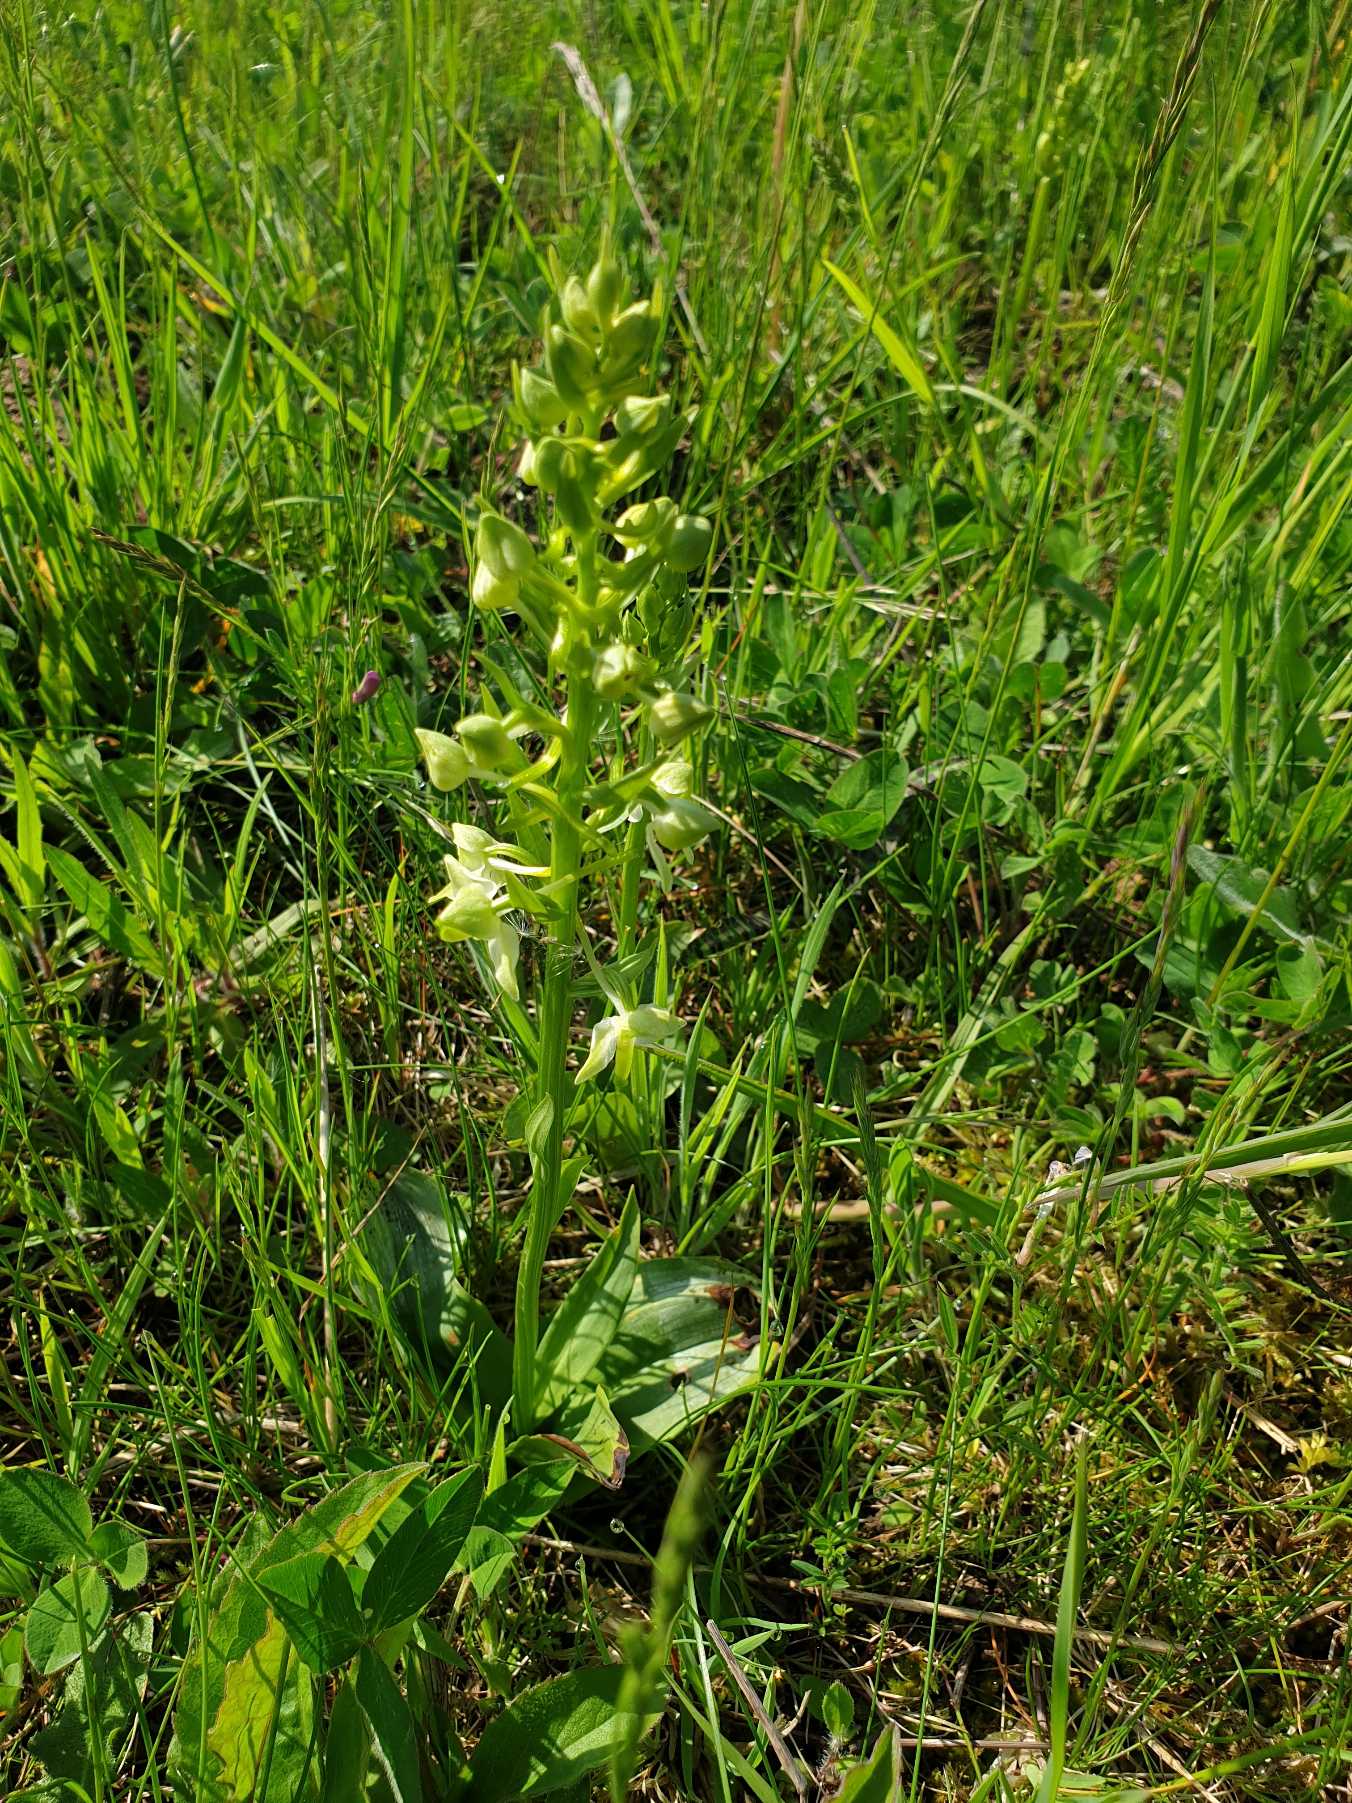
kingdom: Plantae
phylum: Tracheophyta
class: Liliopsida
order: Asparagales
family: Orchidaceae
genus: Platanthera
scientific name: Platanthera chlorantha
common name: Skov-gøgelilje
